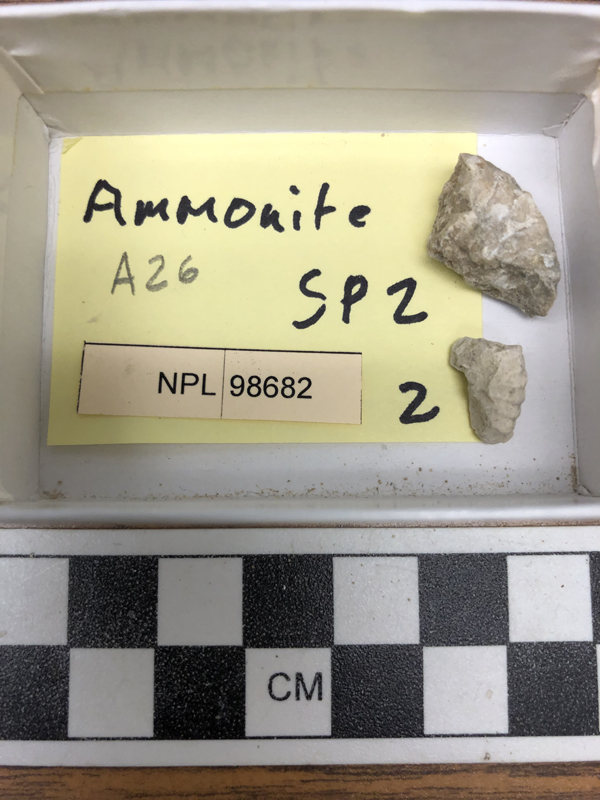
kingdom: Animalia
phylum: Mollusca
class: Cephalopoda
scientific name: Cephalopoda
